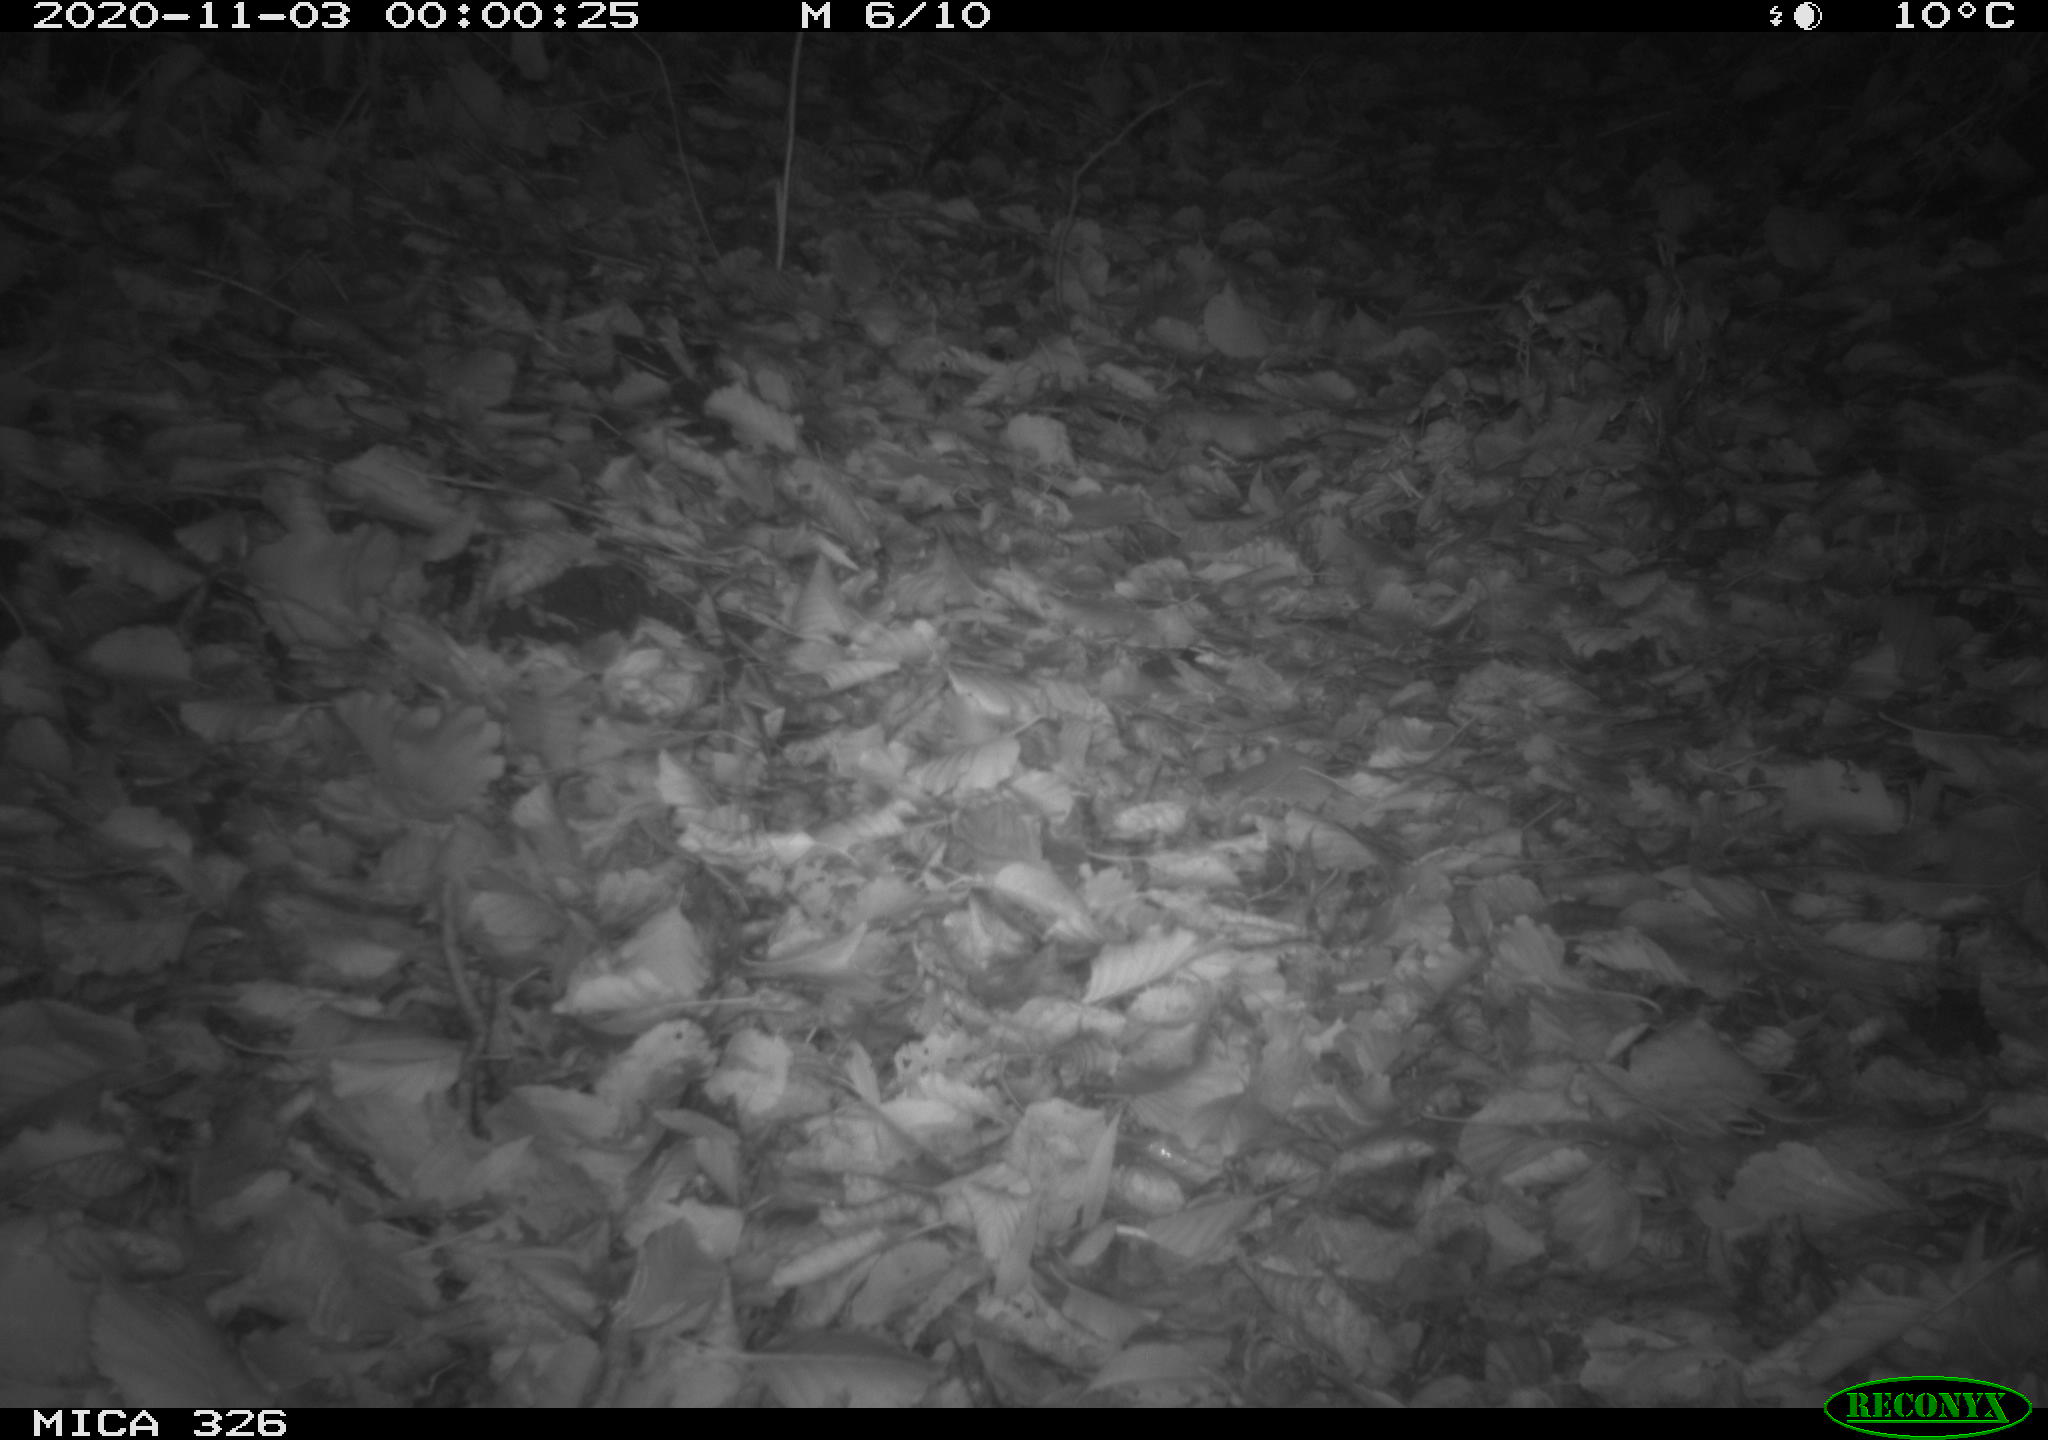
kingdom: Animalia
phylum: Chordata
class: Mammalia
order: Carnivora
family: Mustelidae
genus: Lutra
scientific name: Lutra lutra
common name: European otter
